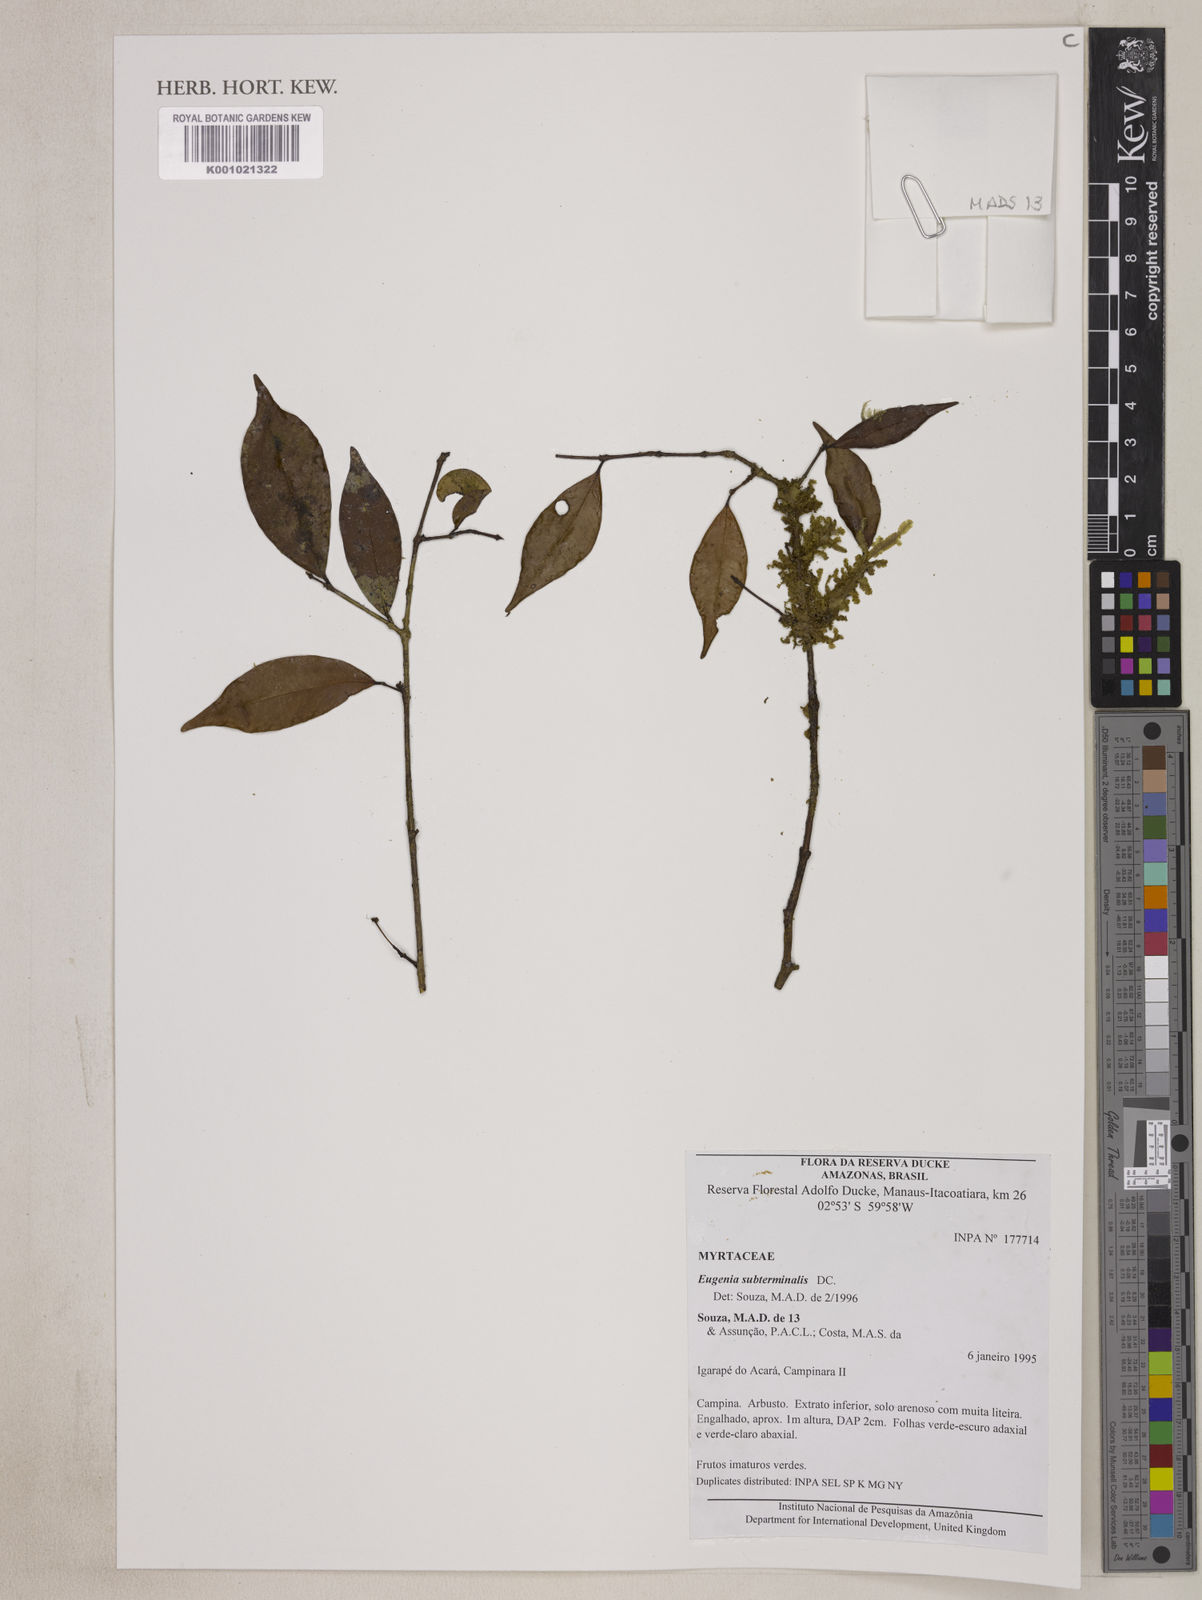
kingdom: Plantae
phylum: Tracheophyta
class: Magnoliopsida
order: Myrtales
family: Myrtaceae
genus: Eugenia
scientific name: Eugenia patrisii
